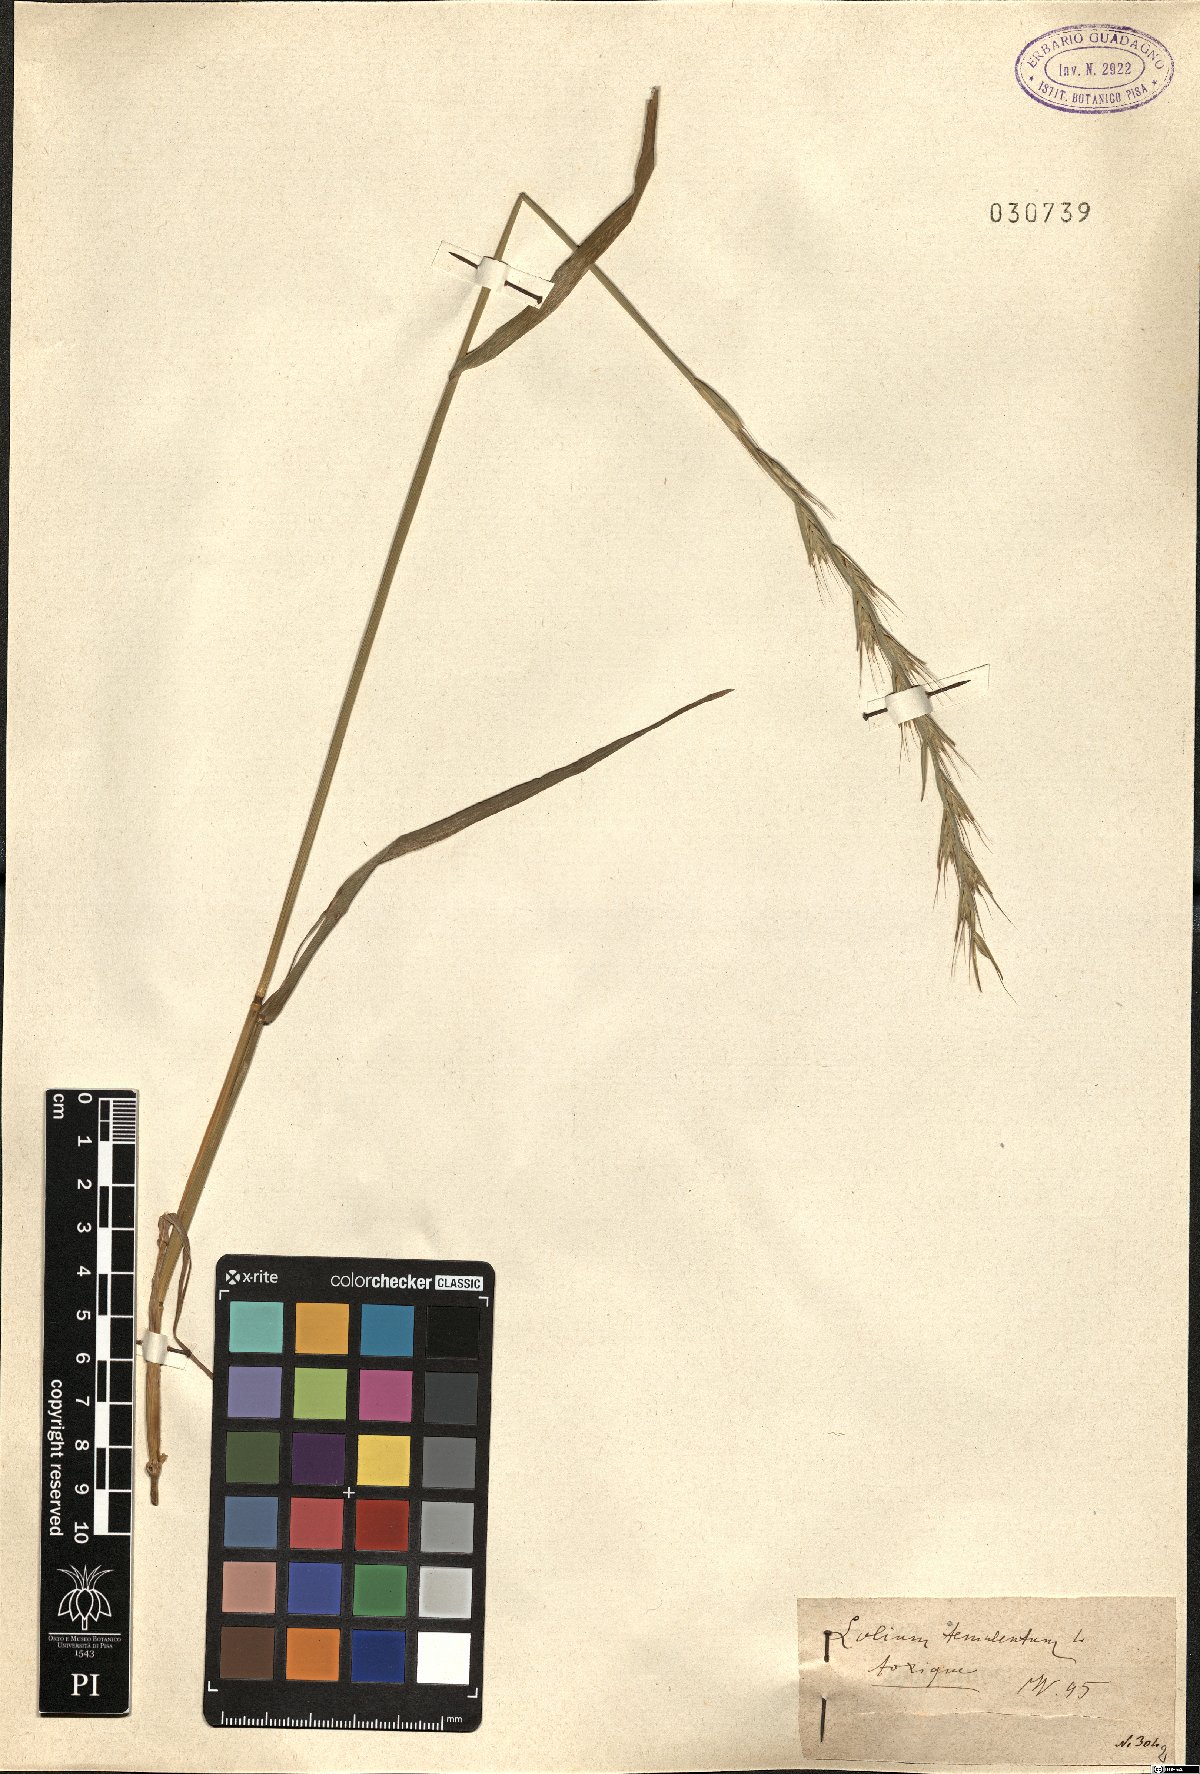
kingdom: Plantae
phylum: Tracheophyta
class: Liliopsida
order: Poales
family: Poaceae
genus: Lolium
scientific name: Lolium temulentum
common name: Darnel
